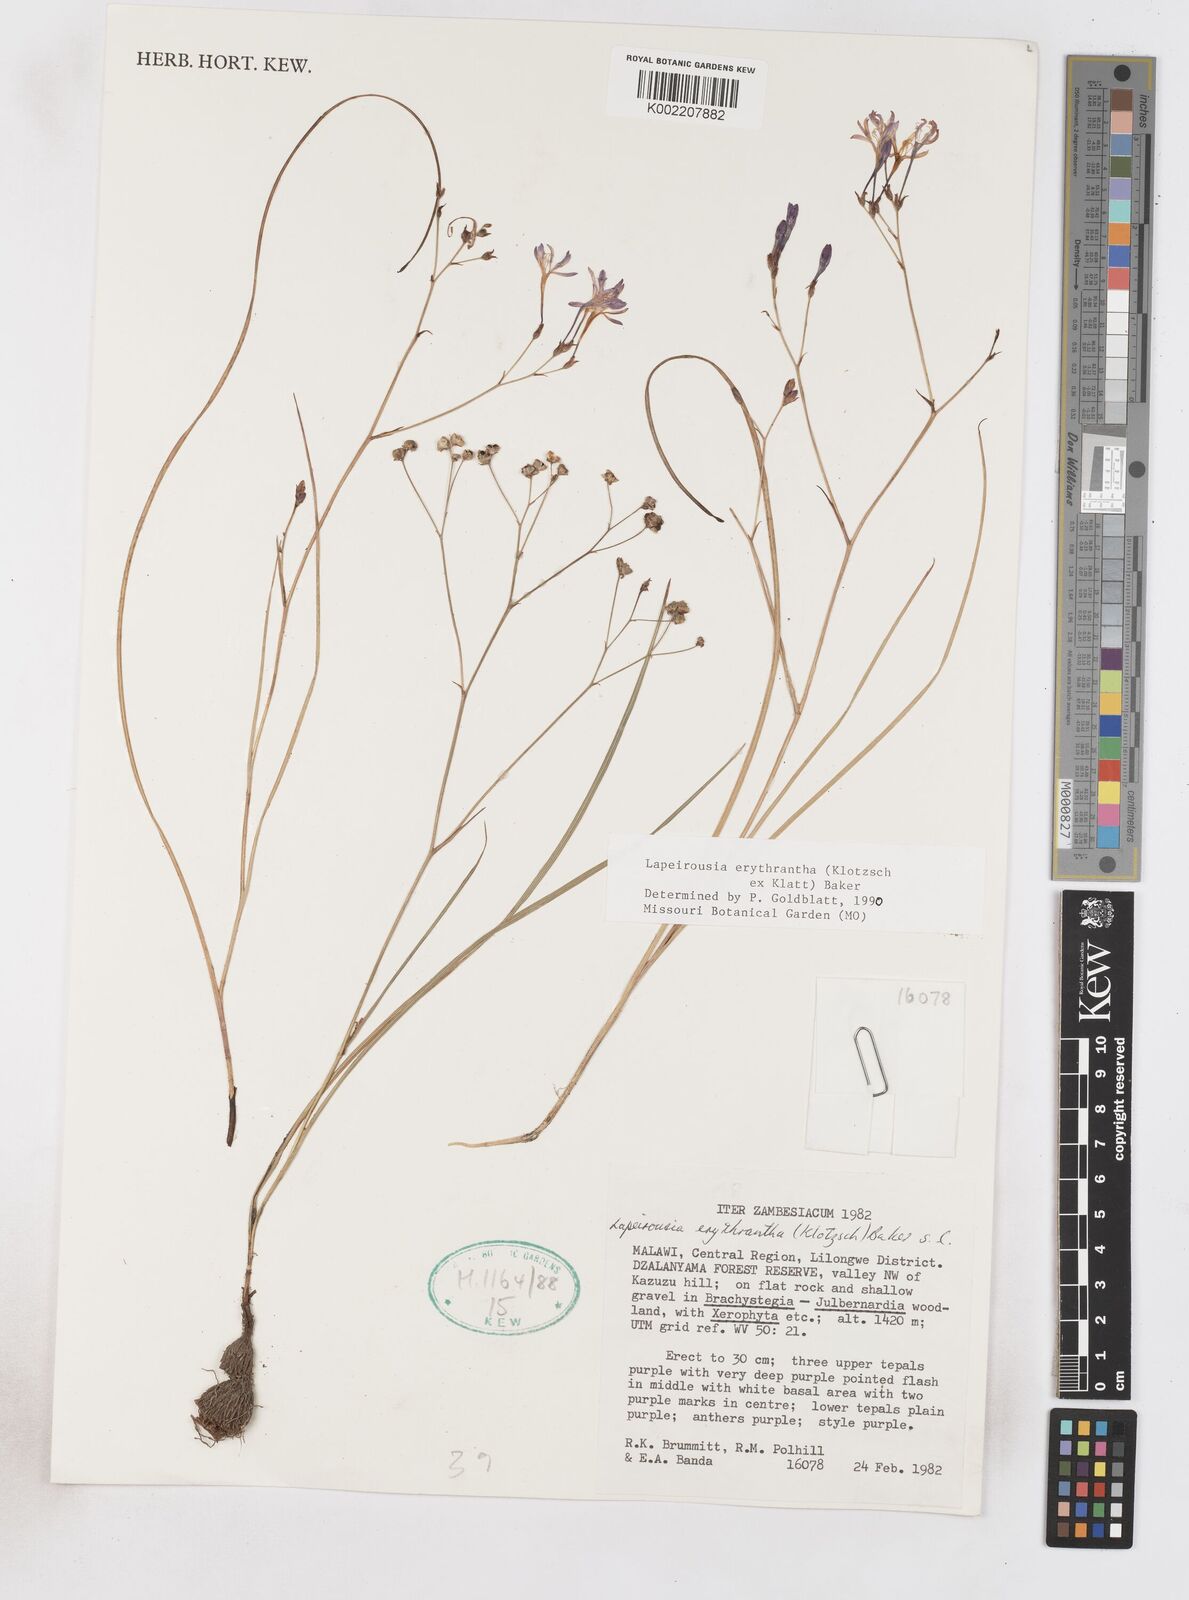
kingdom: Plantae
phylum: Tracheophyta
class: Liliopsida
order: Asparagales
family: Iridaceae
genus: Afrosolen
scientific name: Afrosolen erythranthus
